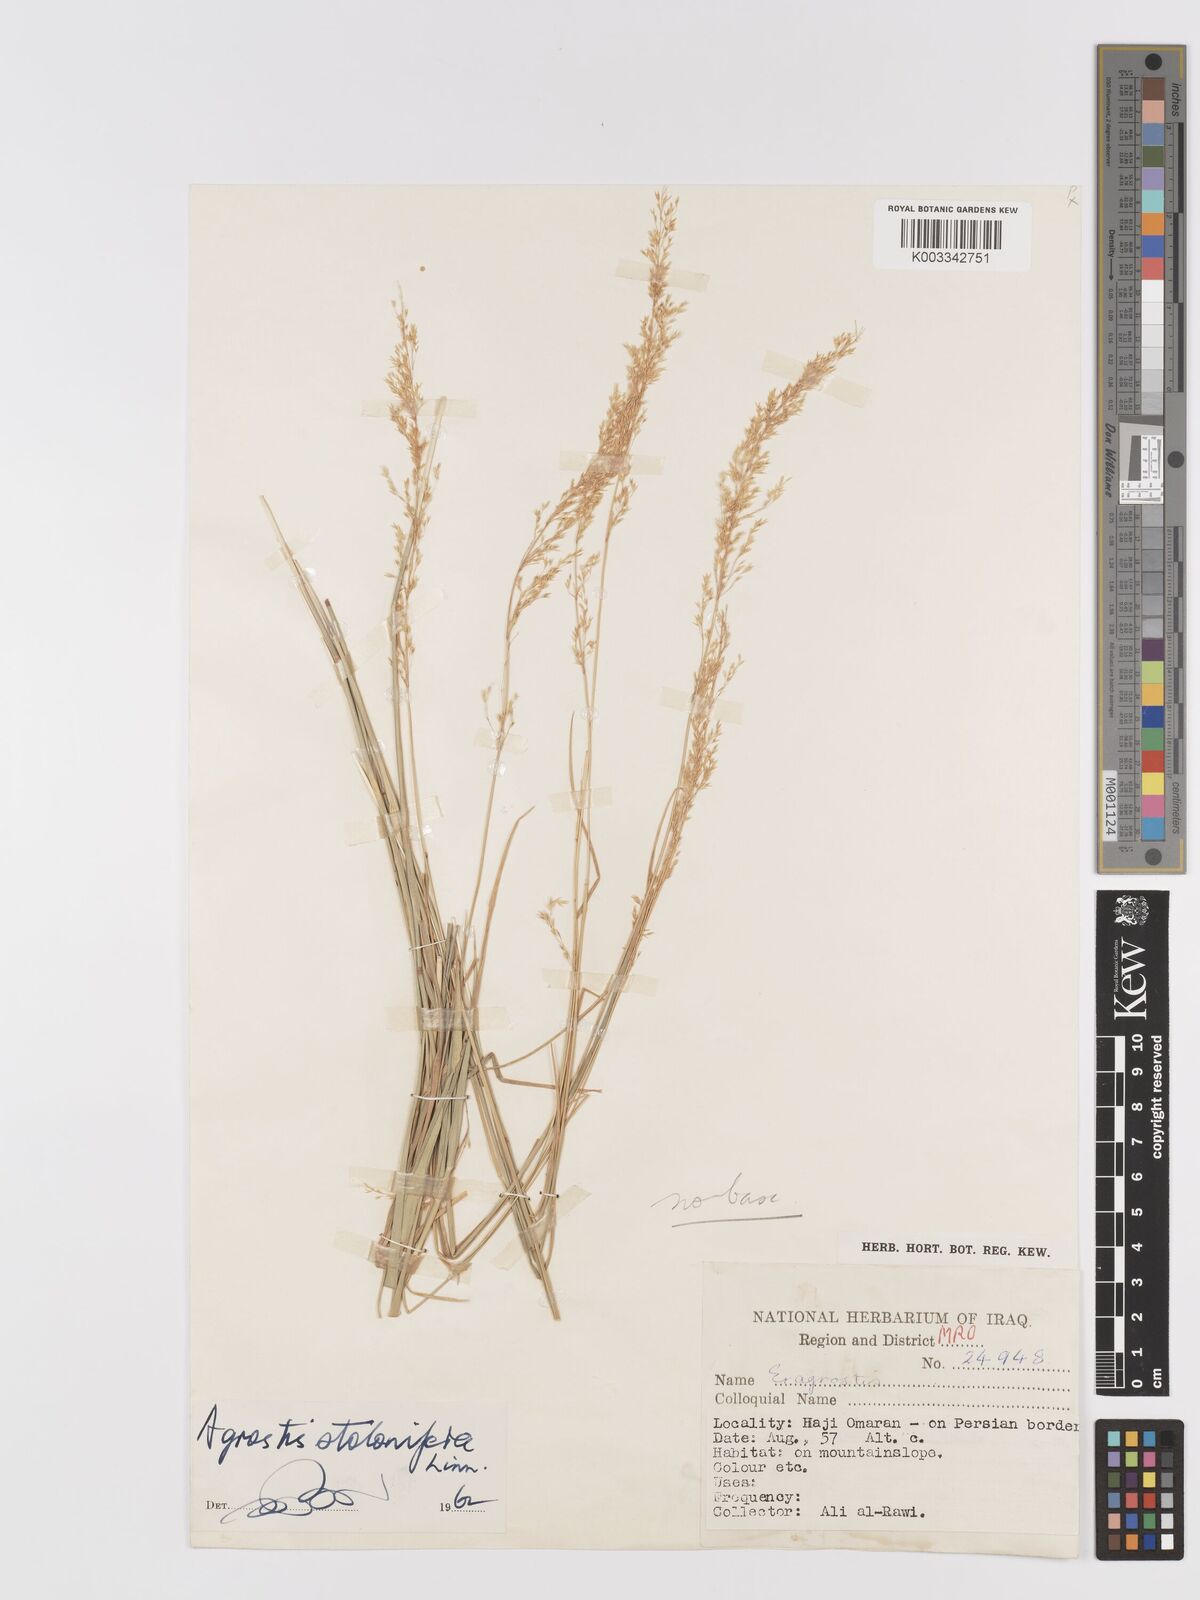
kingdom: Plantae
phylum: Tracheophyta
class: Liliopsida
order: Poales
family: Poaceae
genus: Agrostis
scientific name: Agrostis stolonifera
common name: Creeping bentgrass
